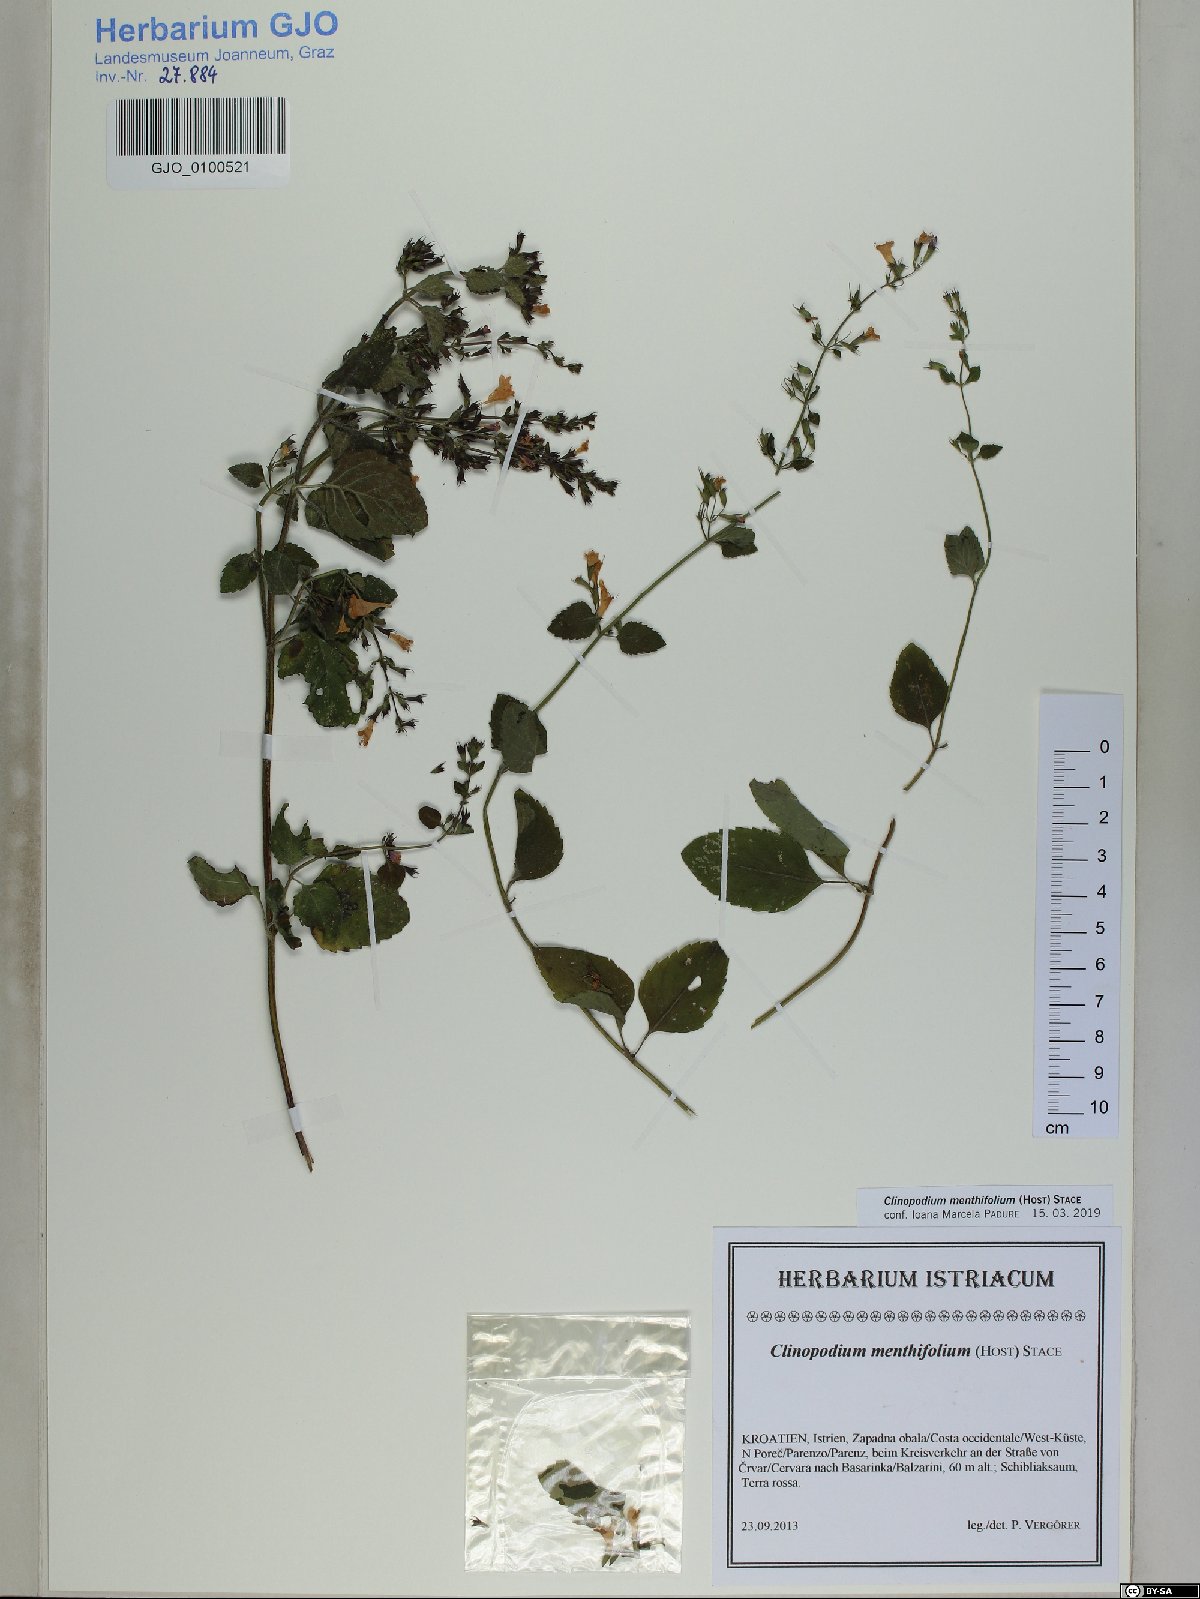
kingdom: Plantae
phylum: Tracheophyta
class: Magnoliopsida
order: Lamiales
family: Lamiaceae
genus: Clinopodium
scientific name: Clinopodium menthifolium
